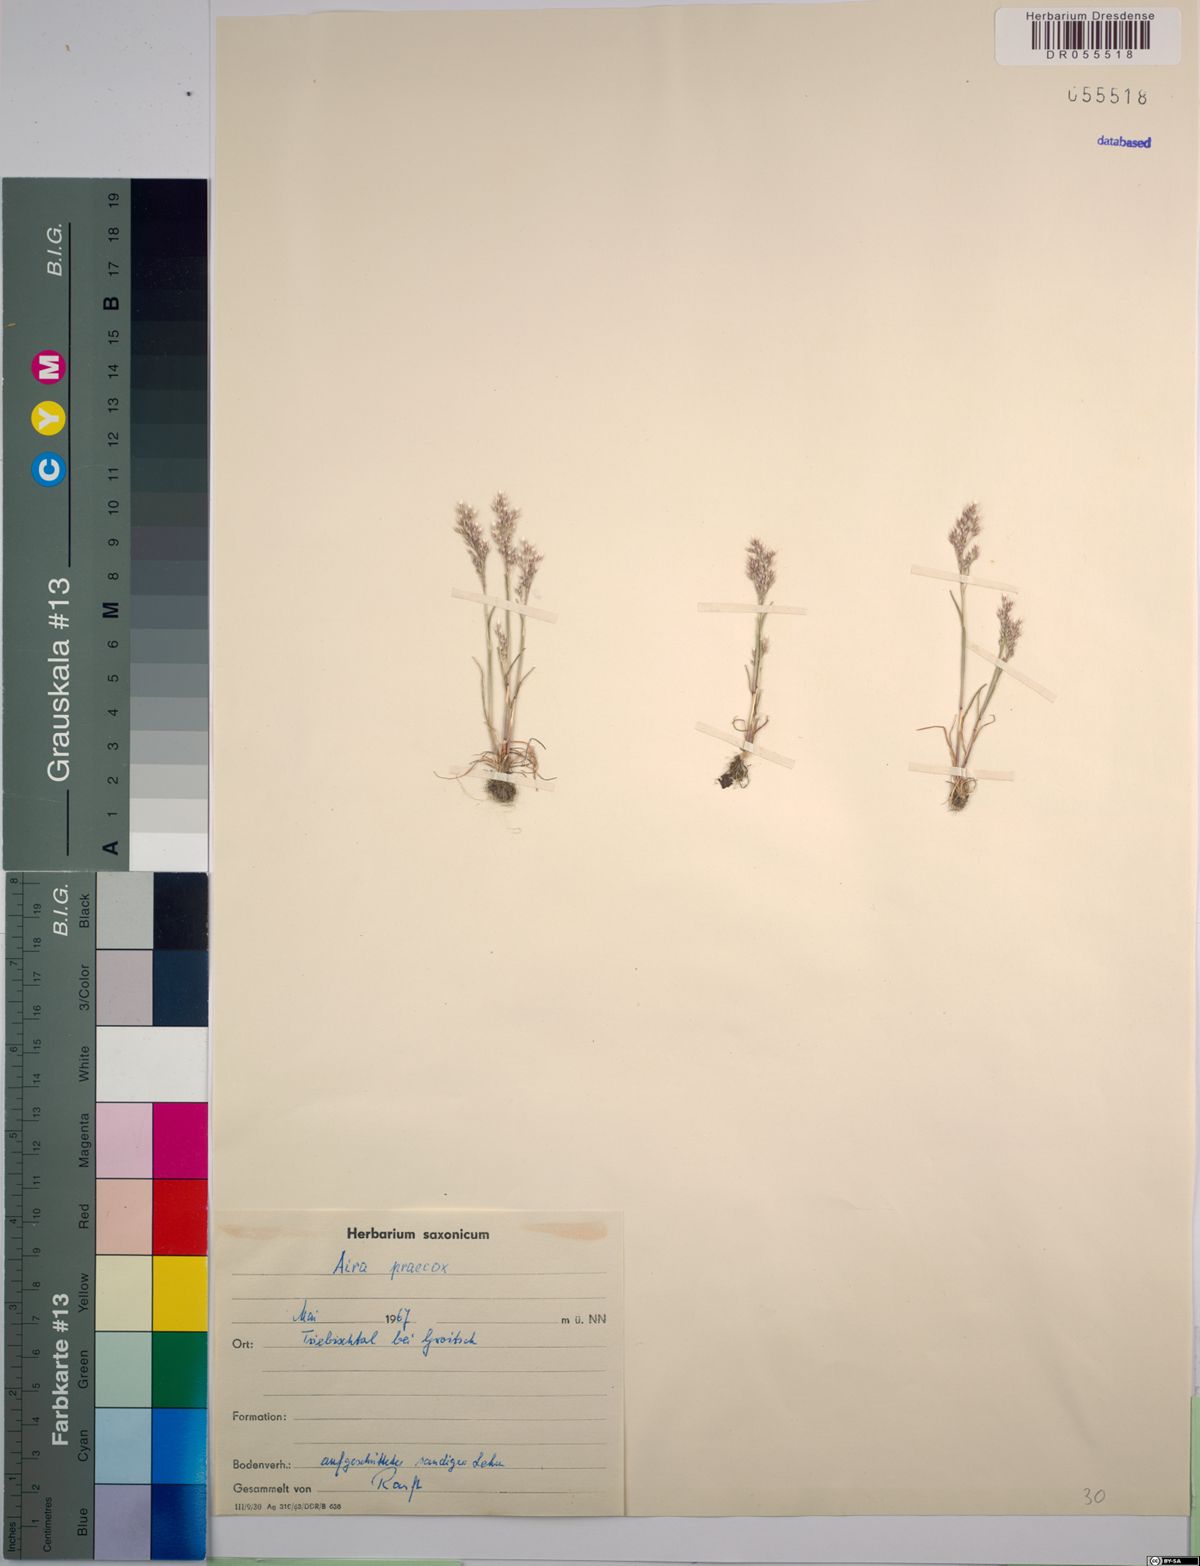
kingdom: Plantae
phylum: Tracheophyta
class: Liliopsida
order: Poales
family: Poaceae
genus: Aira
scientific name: Aira praecox
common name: Early hair-grass
